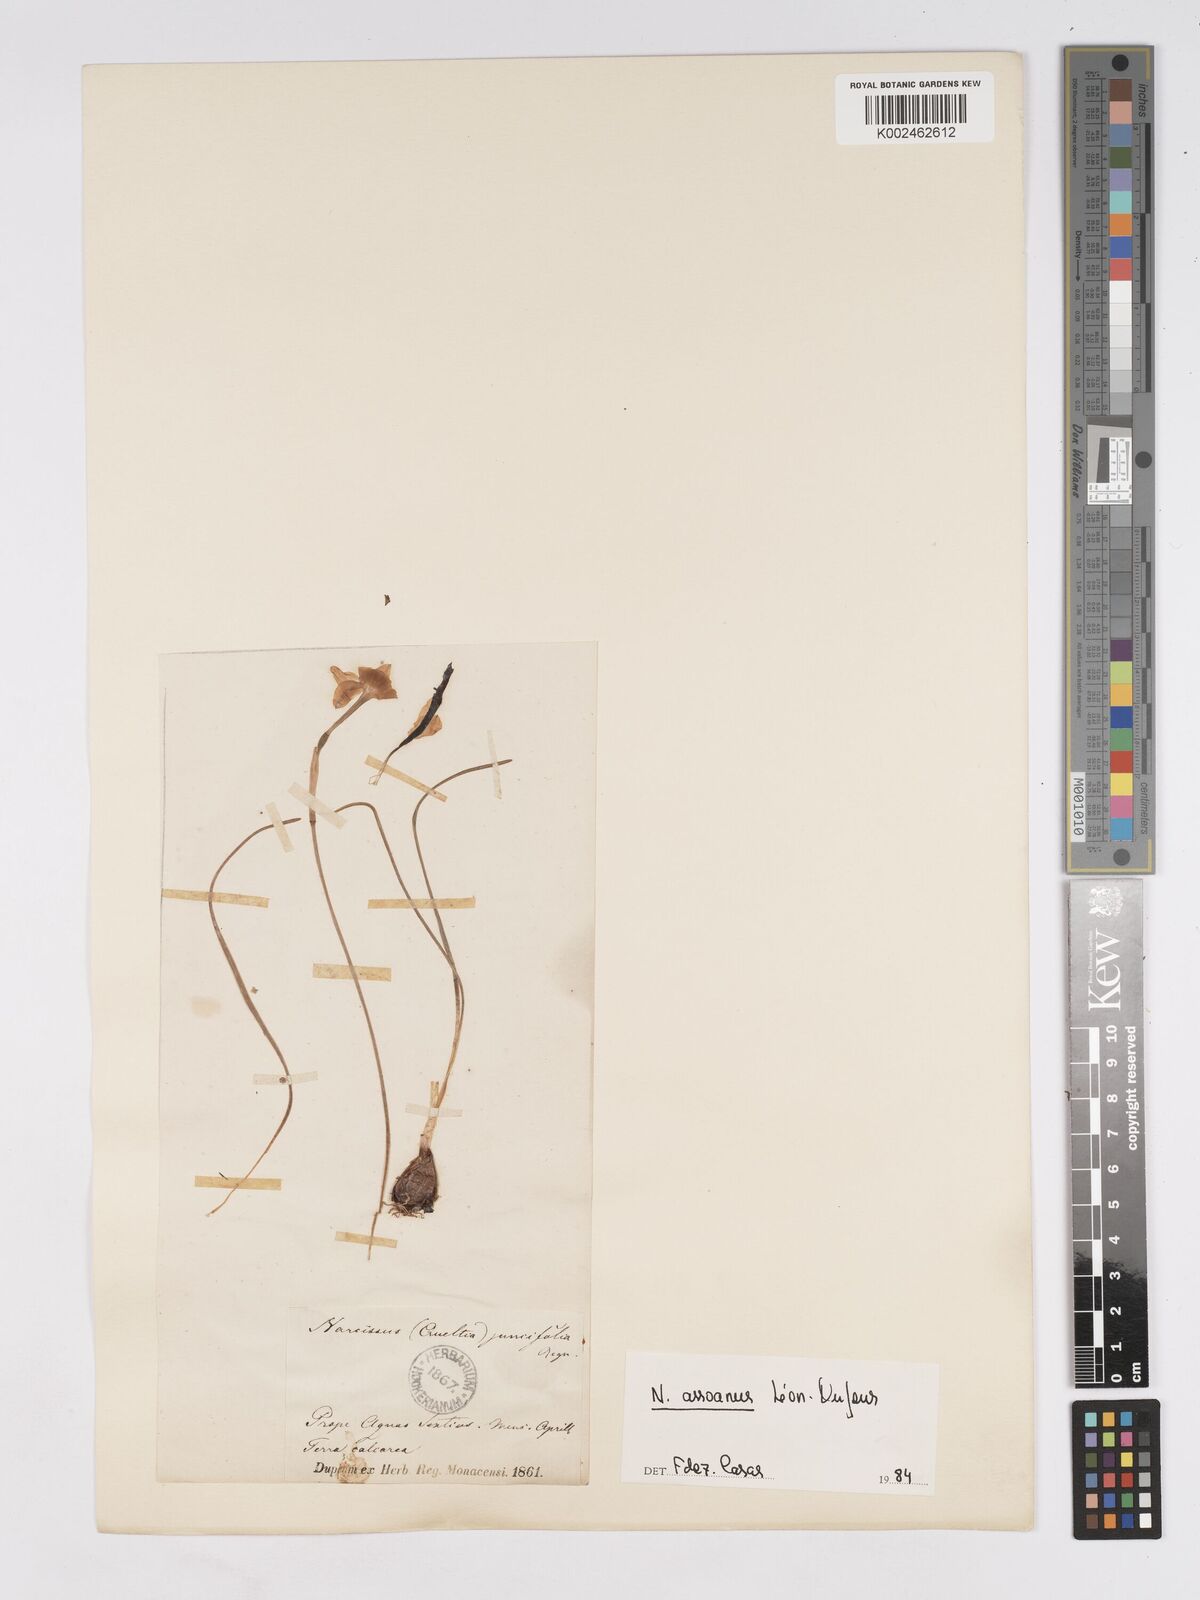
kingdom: Plantae
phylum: Tracheophyta
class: Liliopsida
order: Asparagales
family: Amaryllidaceae
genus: Narcissus
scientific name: Narcissus assoanus
